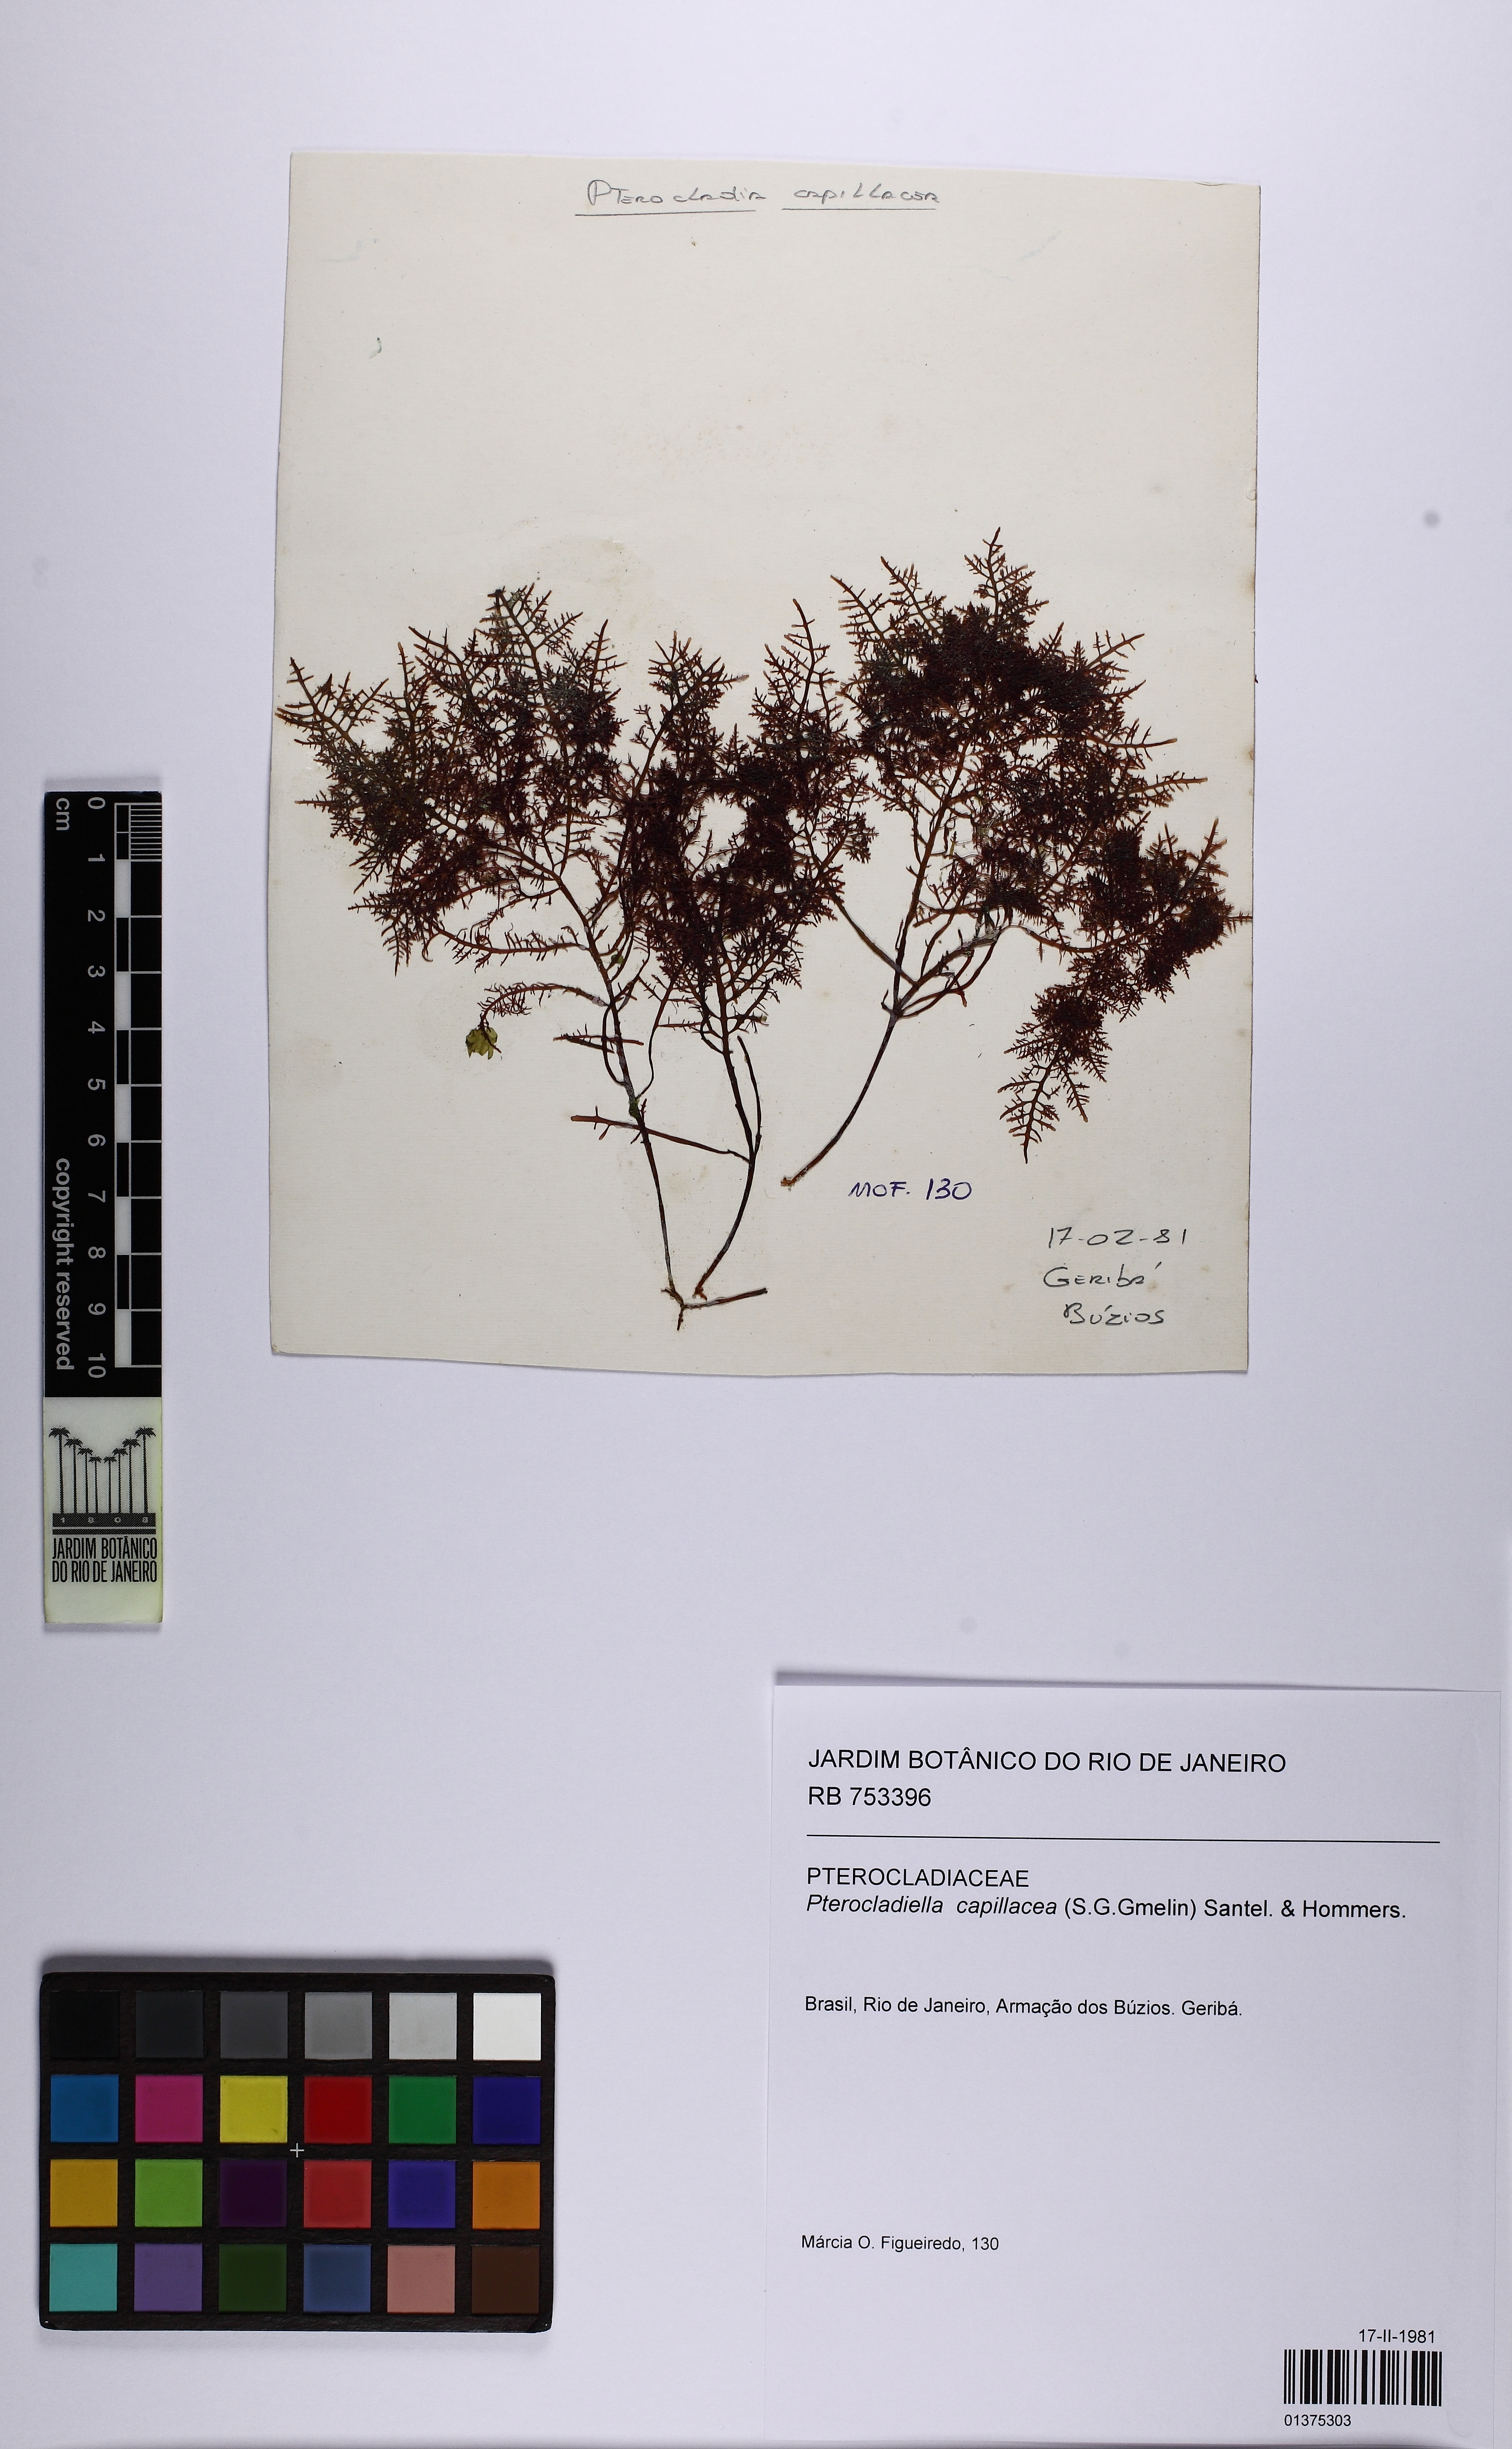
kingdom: Plantae
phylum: Rhodophyta
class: Florideophyceae
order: Gelidiales
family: Pterocladiaceae
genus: Pterocladiella
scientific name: Pterocladiella capillacea
